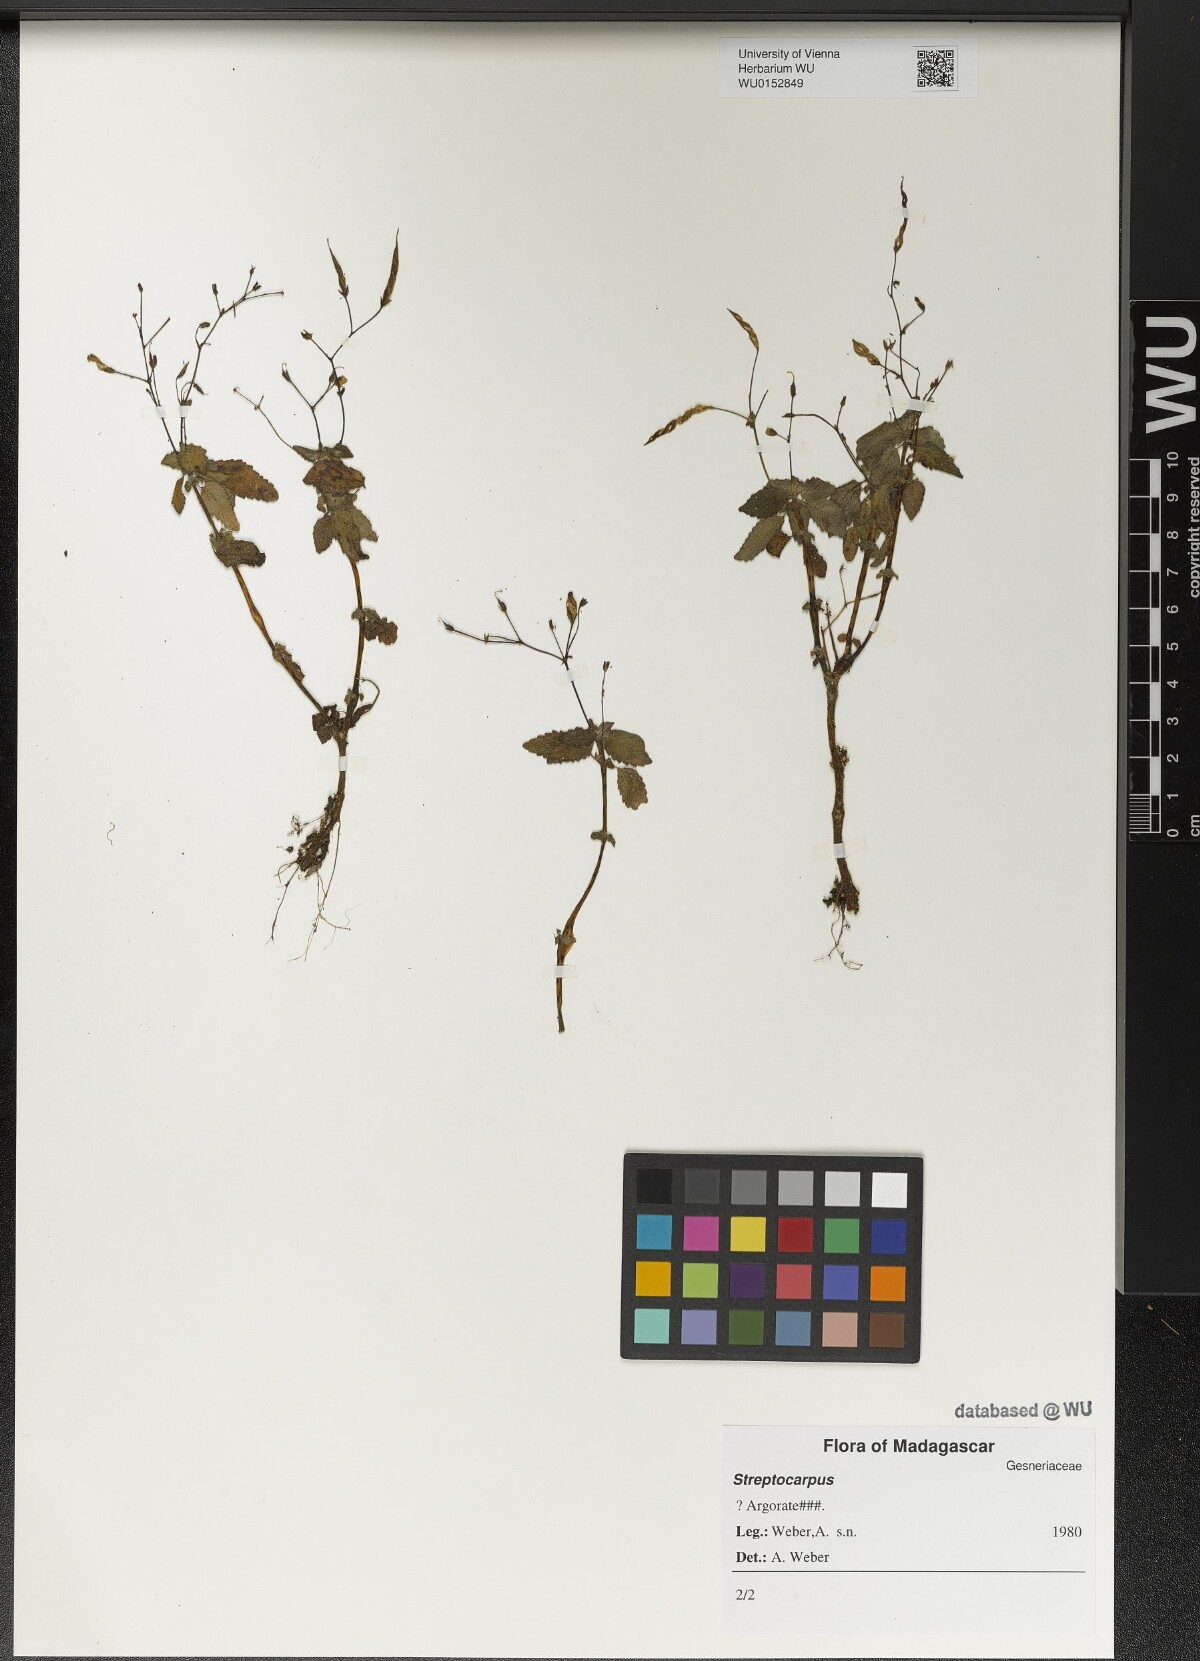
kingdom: Plantae
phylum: Tracheophyta
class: Magnoliopsida
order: Lamiales
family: Gesneriaceae
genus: Streptocarpus
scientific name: Streptocarpus
